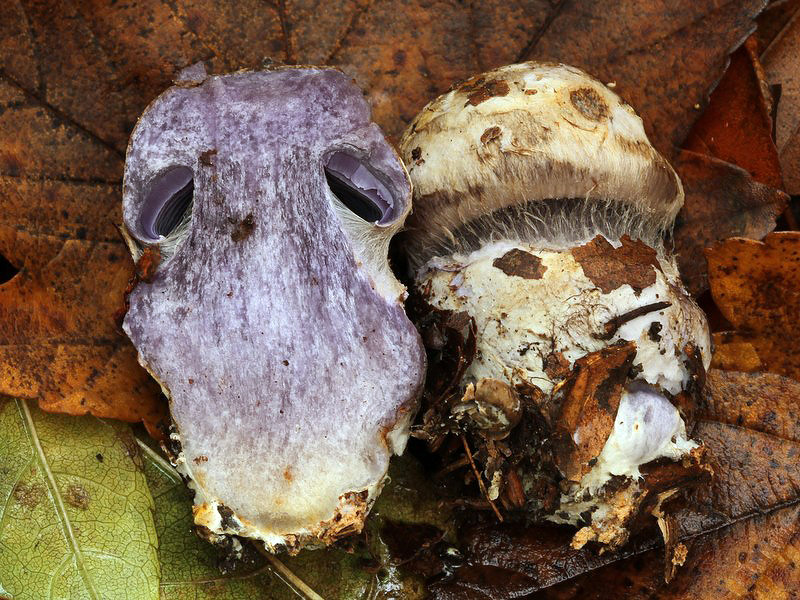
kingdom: Fungi
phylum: Basidiomycota
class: Agaricomycetes
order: Agaricales
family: Cortinariaceae
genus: Phlegmacium
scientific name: Phlegmacium luhmannii
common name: musegrå slørhat
